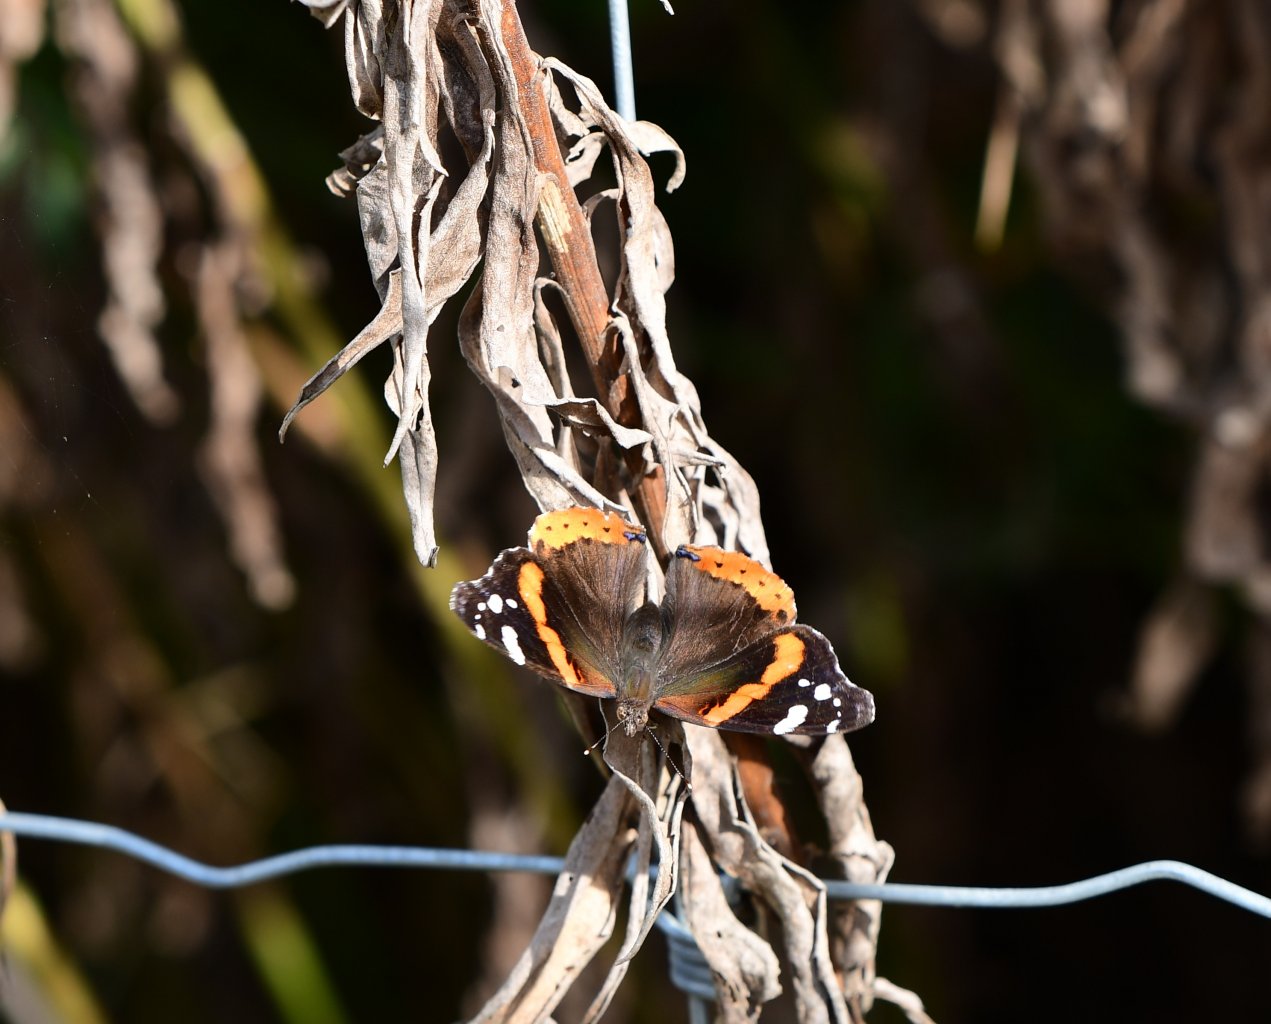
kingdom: Animalia
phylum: Arthropoda
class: Insecta
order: Lepidoptera
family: Nymphalidae
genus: Vanessa
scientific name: Vanessa atalanta
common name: Red Admiral
